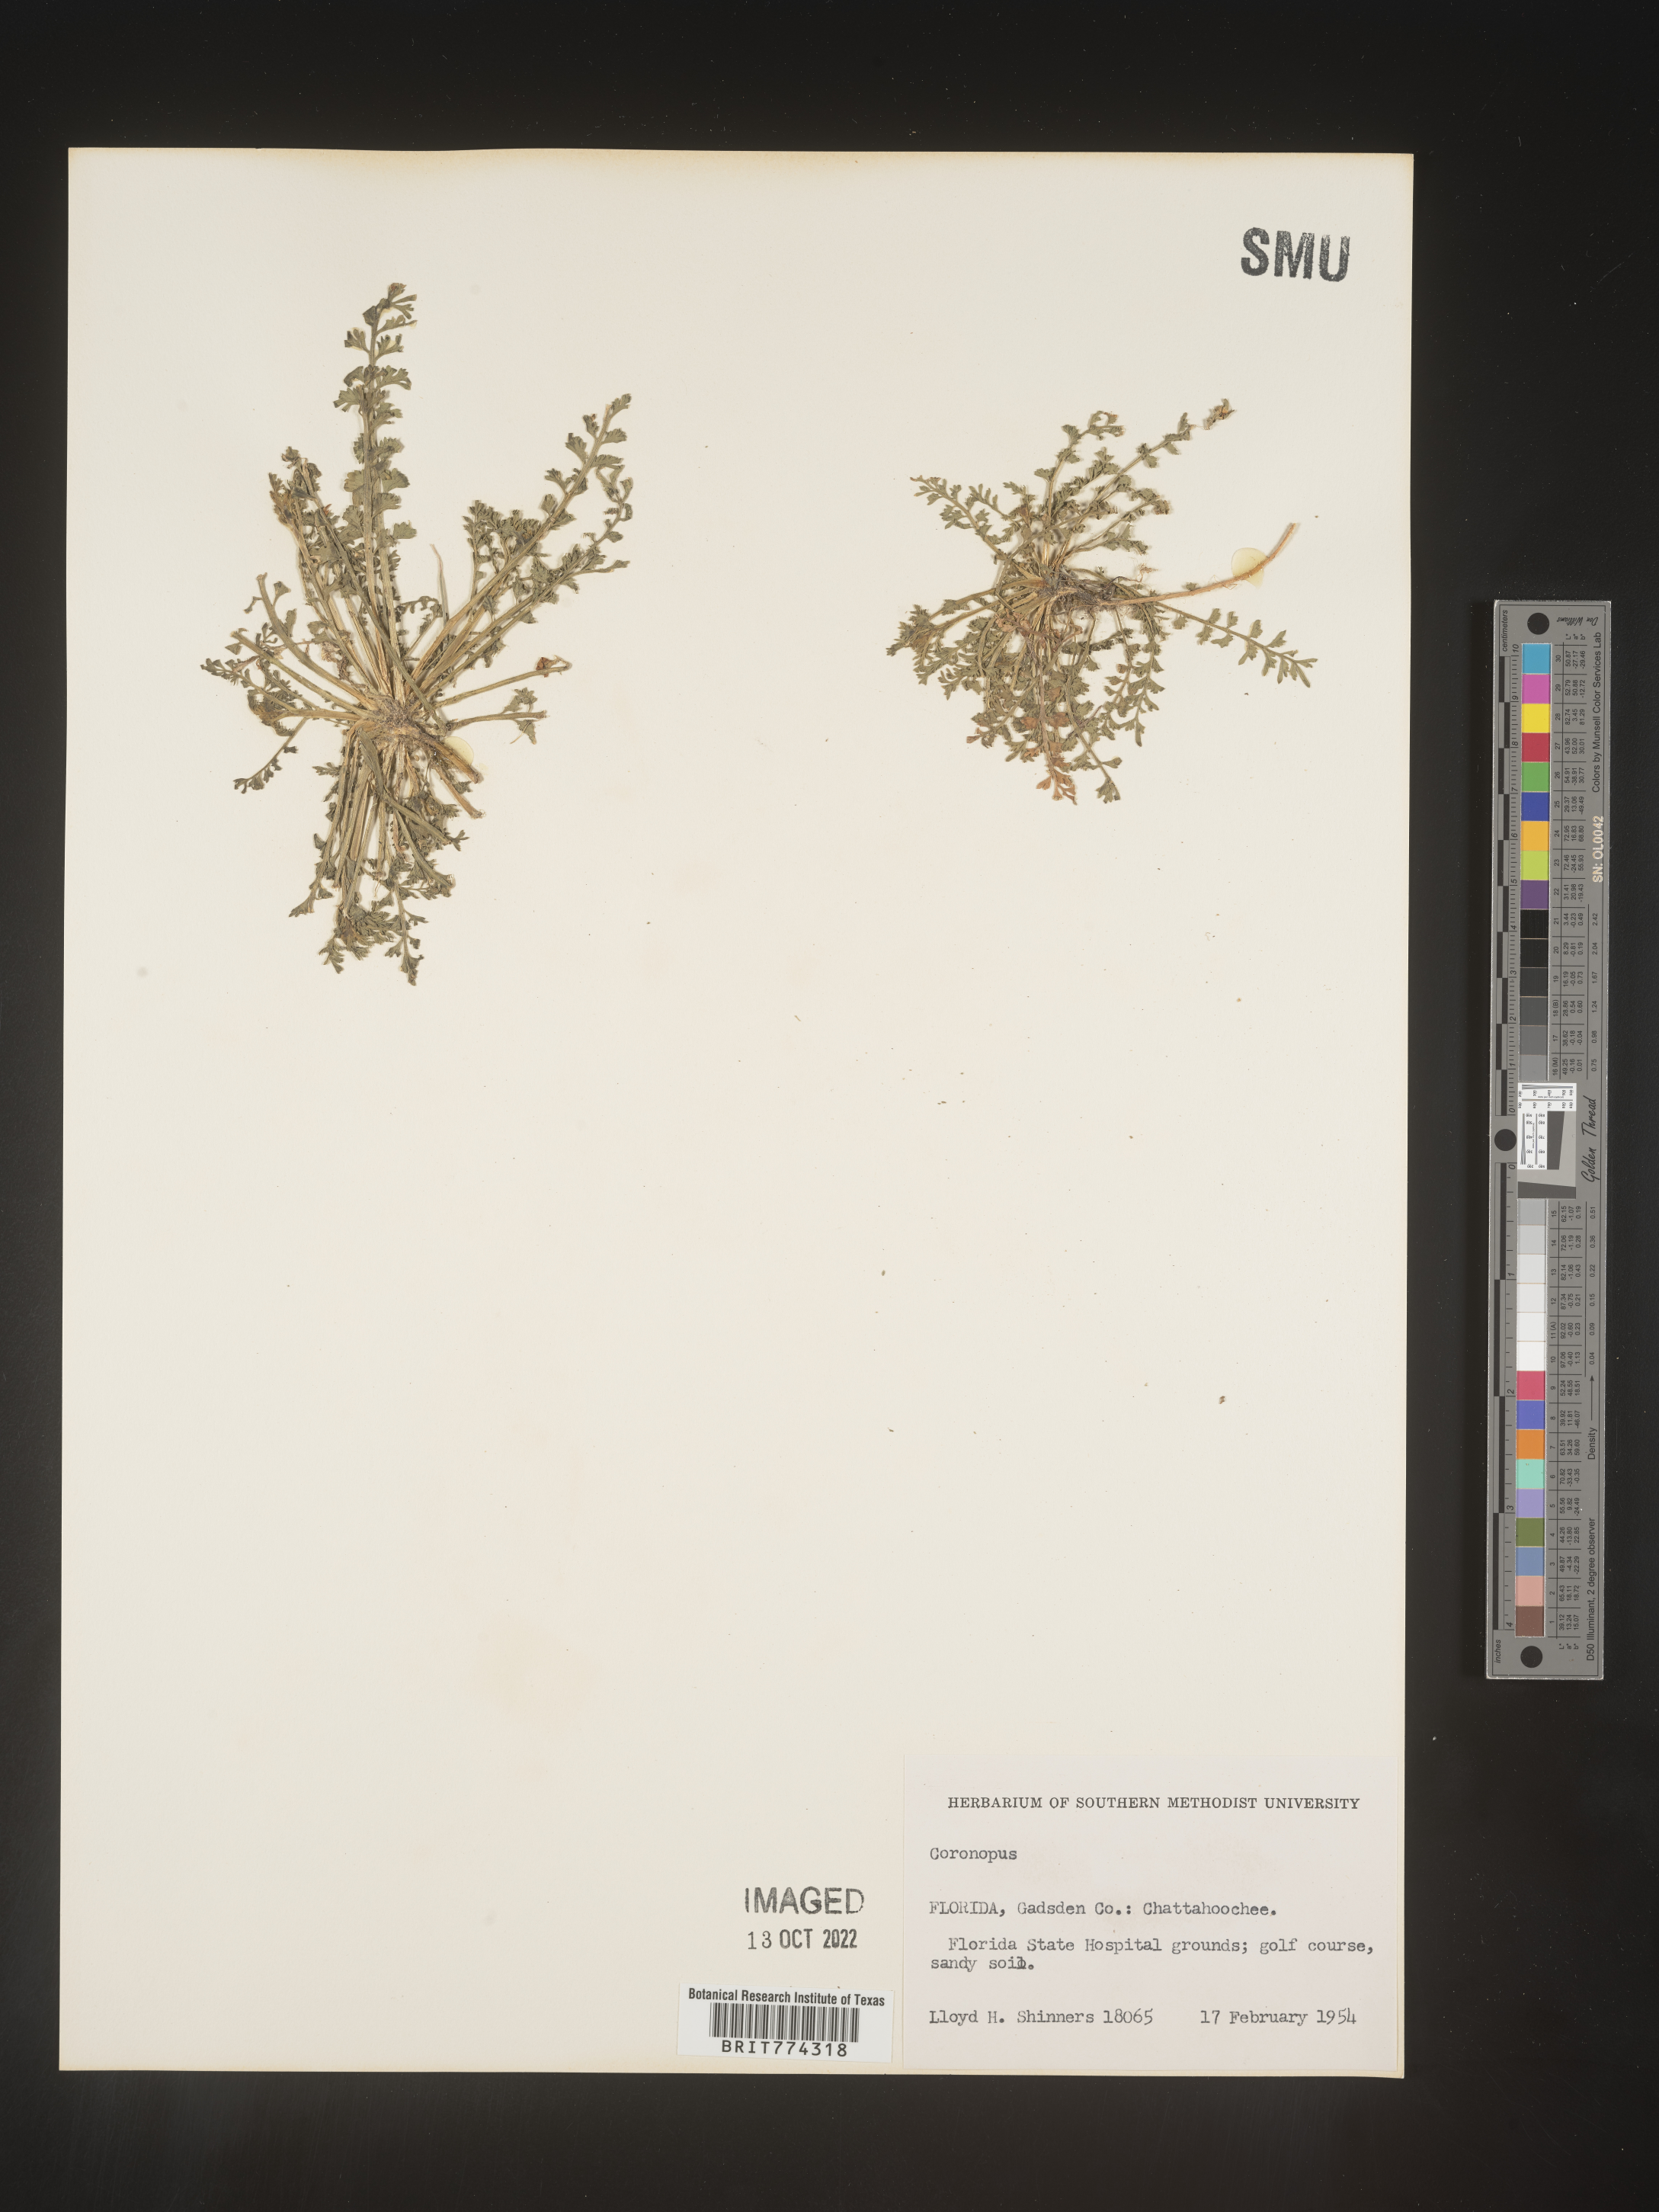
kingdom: Plantae
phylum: Tracheophyta
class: Magnoliopsida
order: Brassicales
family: Brassicaceae
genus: Coronopus
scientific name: Coronopus
